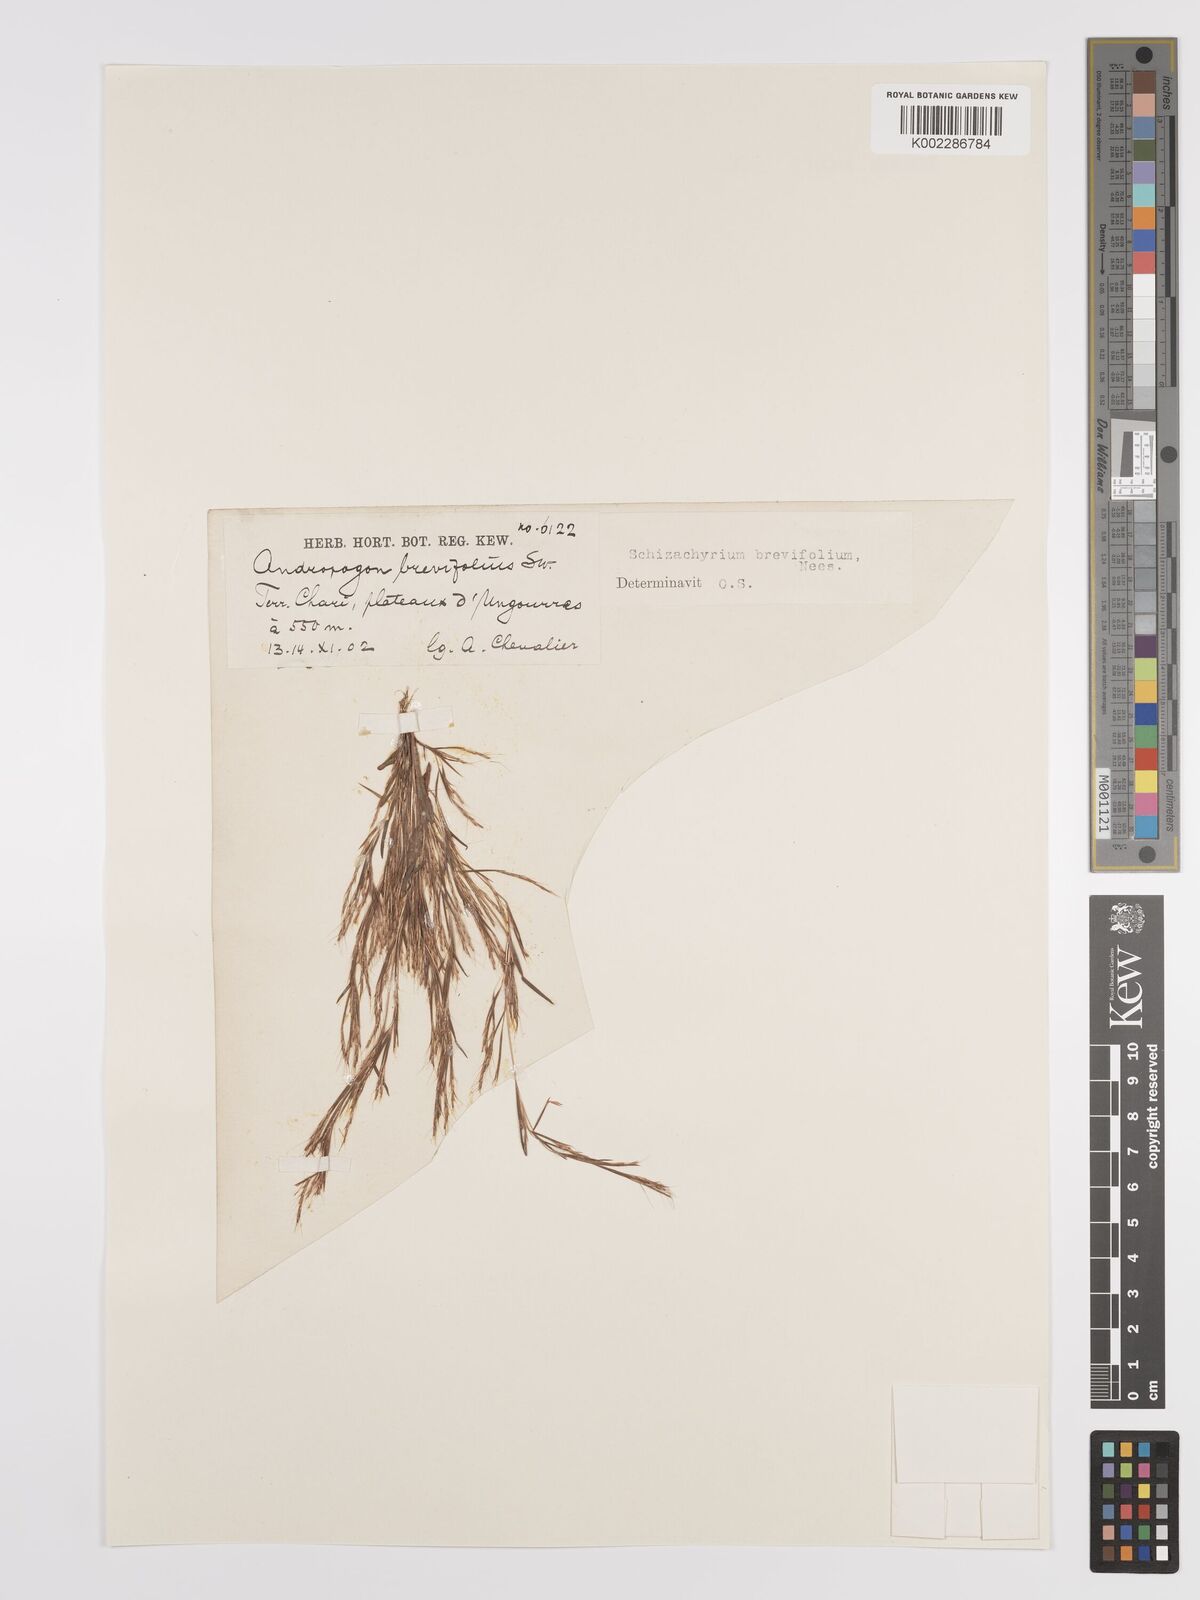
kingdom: Plantae
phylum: Tracheophyta
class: Liliopsida
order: Poales
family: Poaceae
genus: Schizachyrium
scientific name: Schizachyrium brevifolium
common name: Serillo dulce
